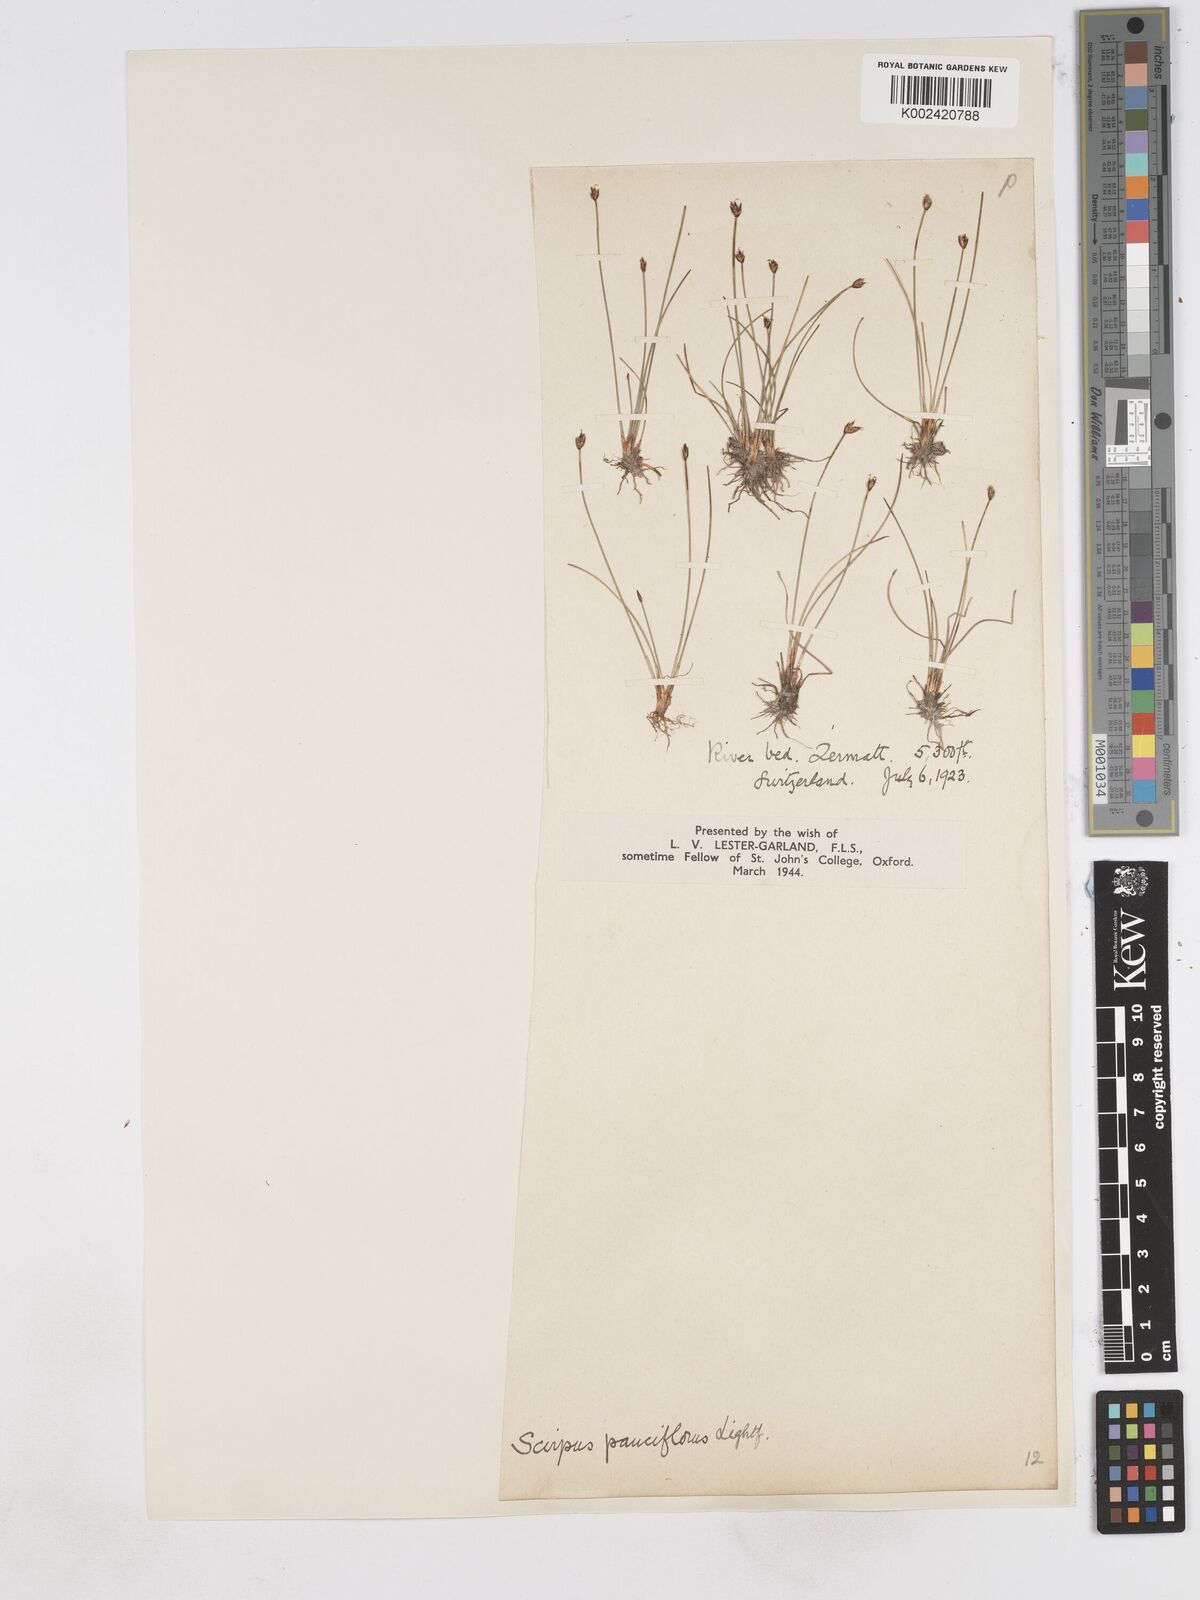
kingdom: Plantae
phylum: Tracheophyta
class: Liliopsida
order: Poales
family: Cyperaceae
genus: Eleocharis
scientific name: Eleocharis quinqueflora
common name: Few-flowered spike-rush
